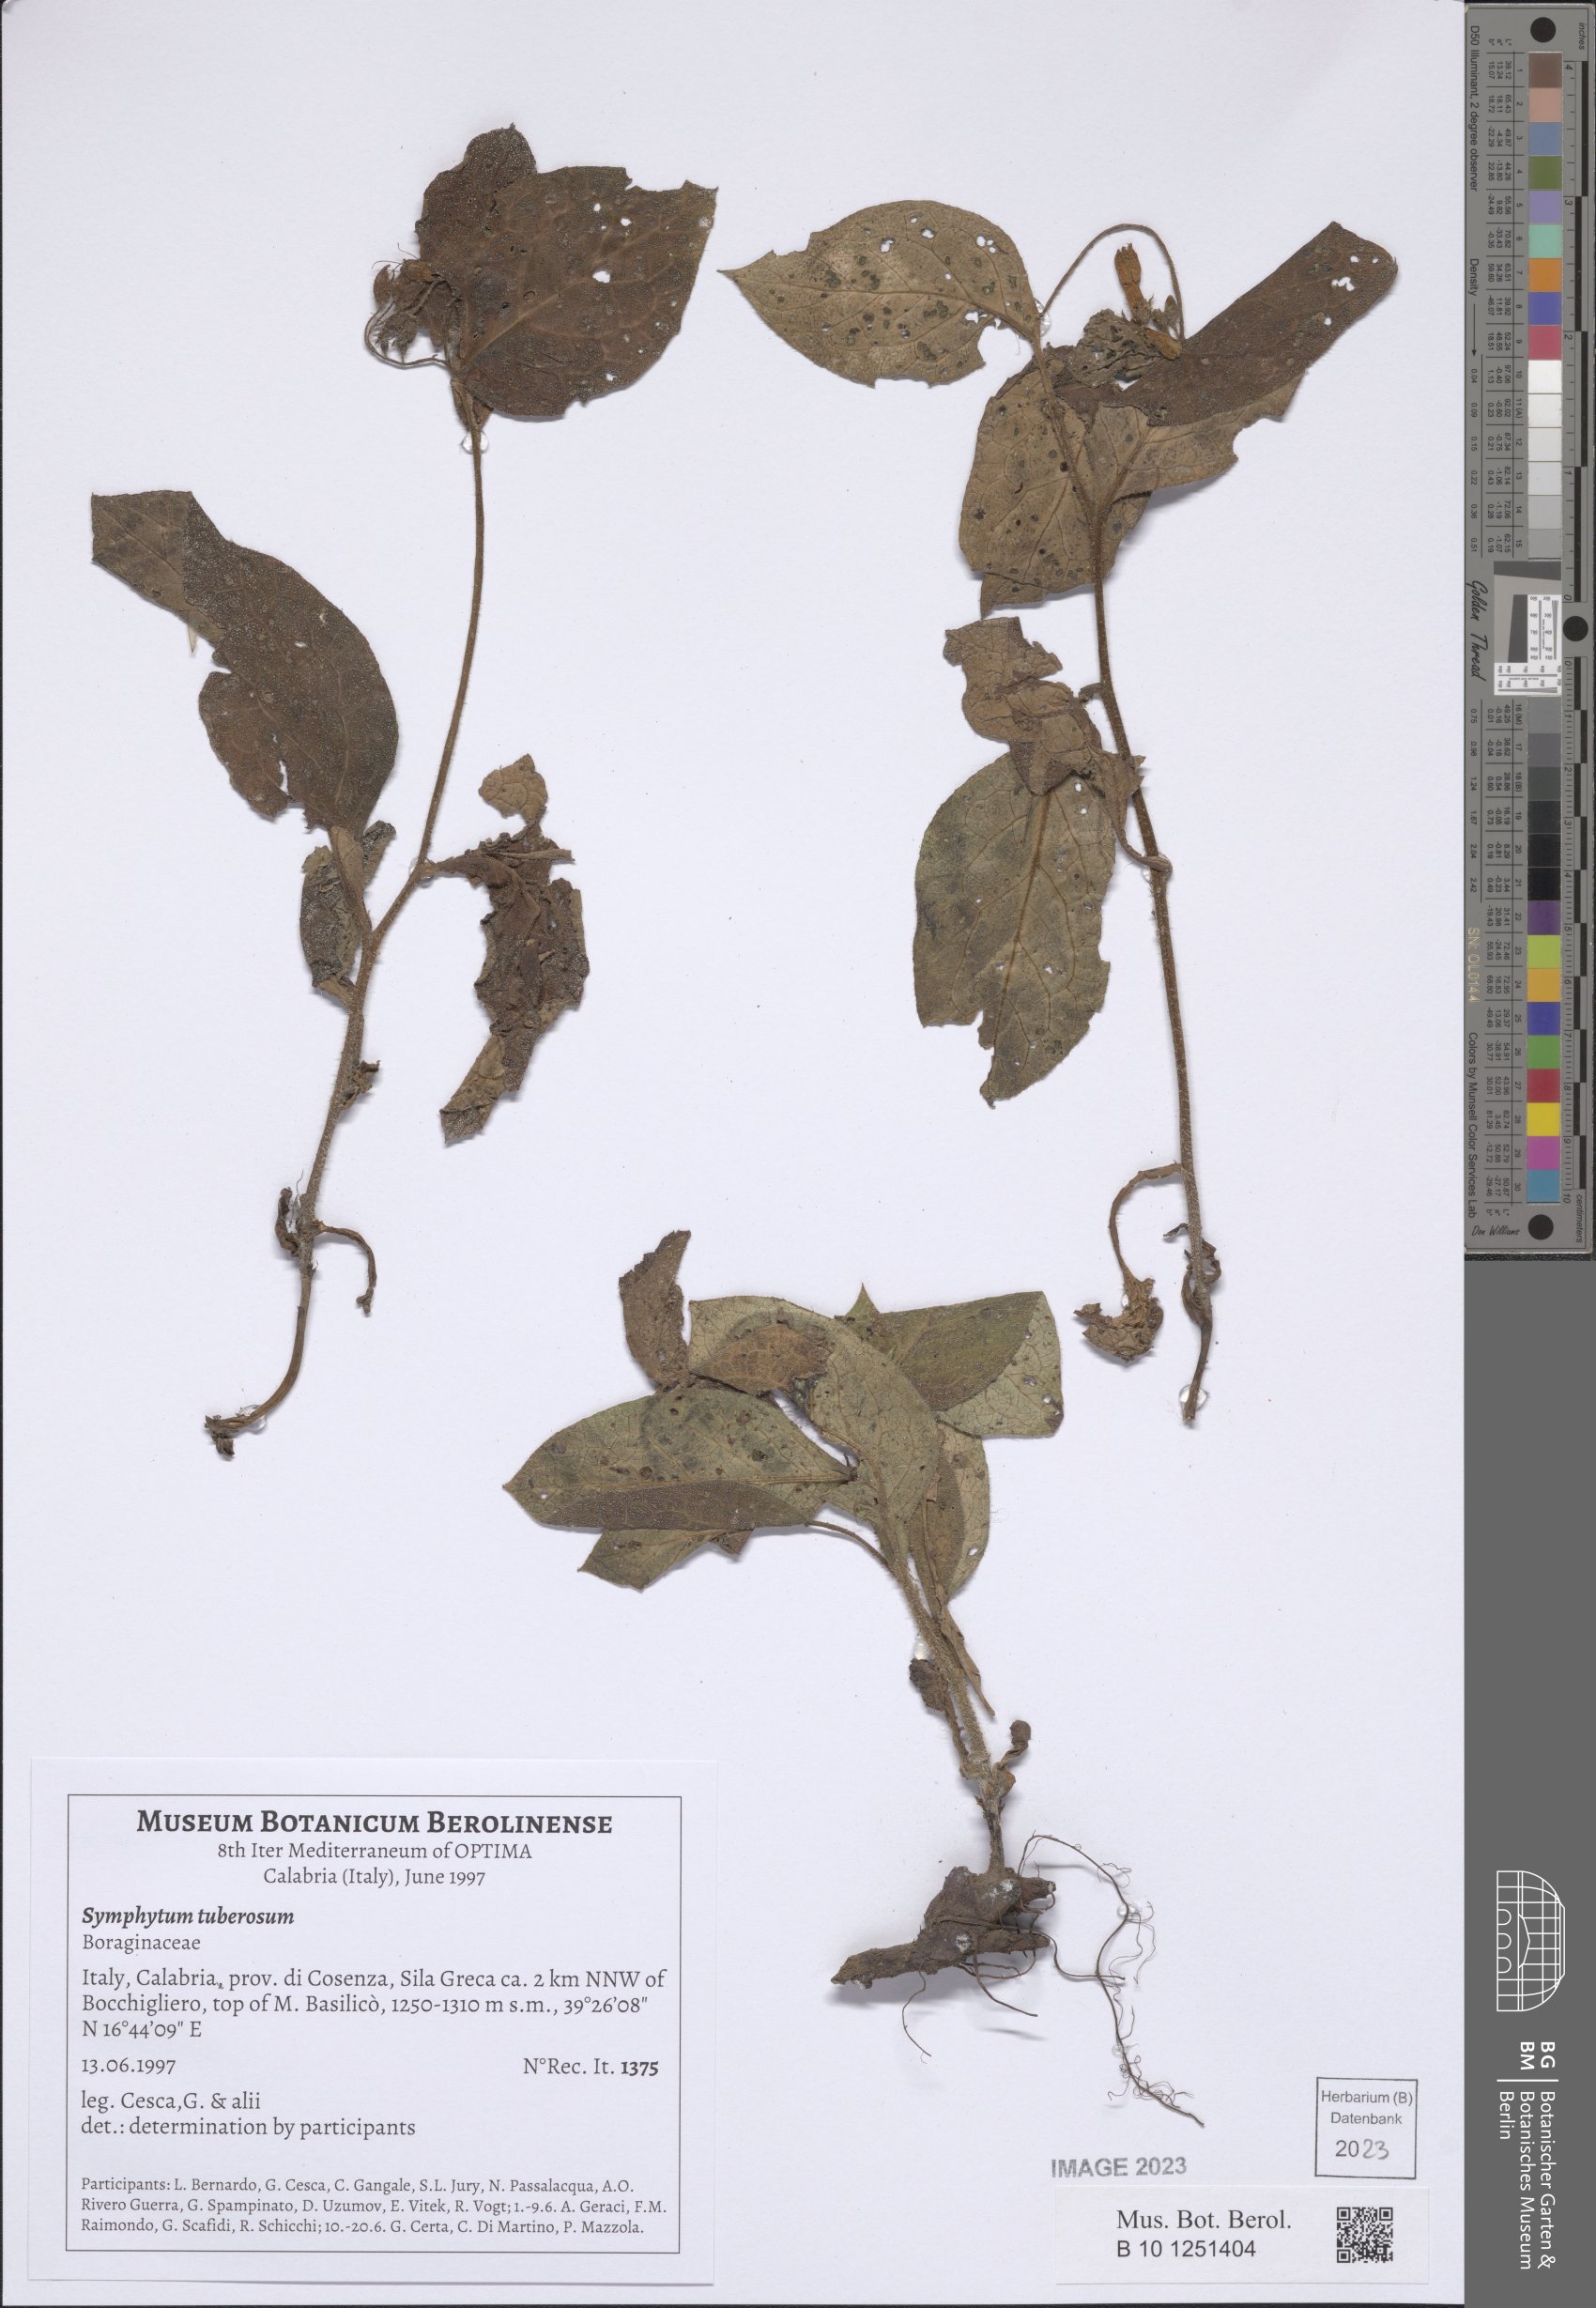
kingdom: Plantae
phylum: Tracheophyta
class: Magnoliopsida
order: Boraginales
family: Boraginaceae
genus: Symphytum
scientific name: Symphytum tuberosum
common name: Tuberous comfrey
